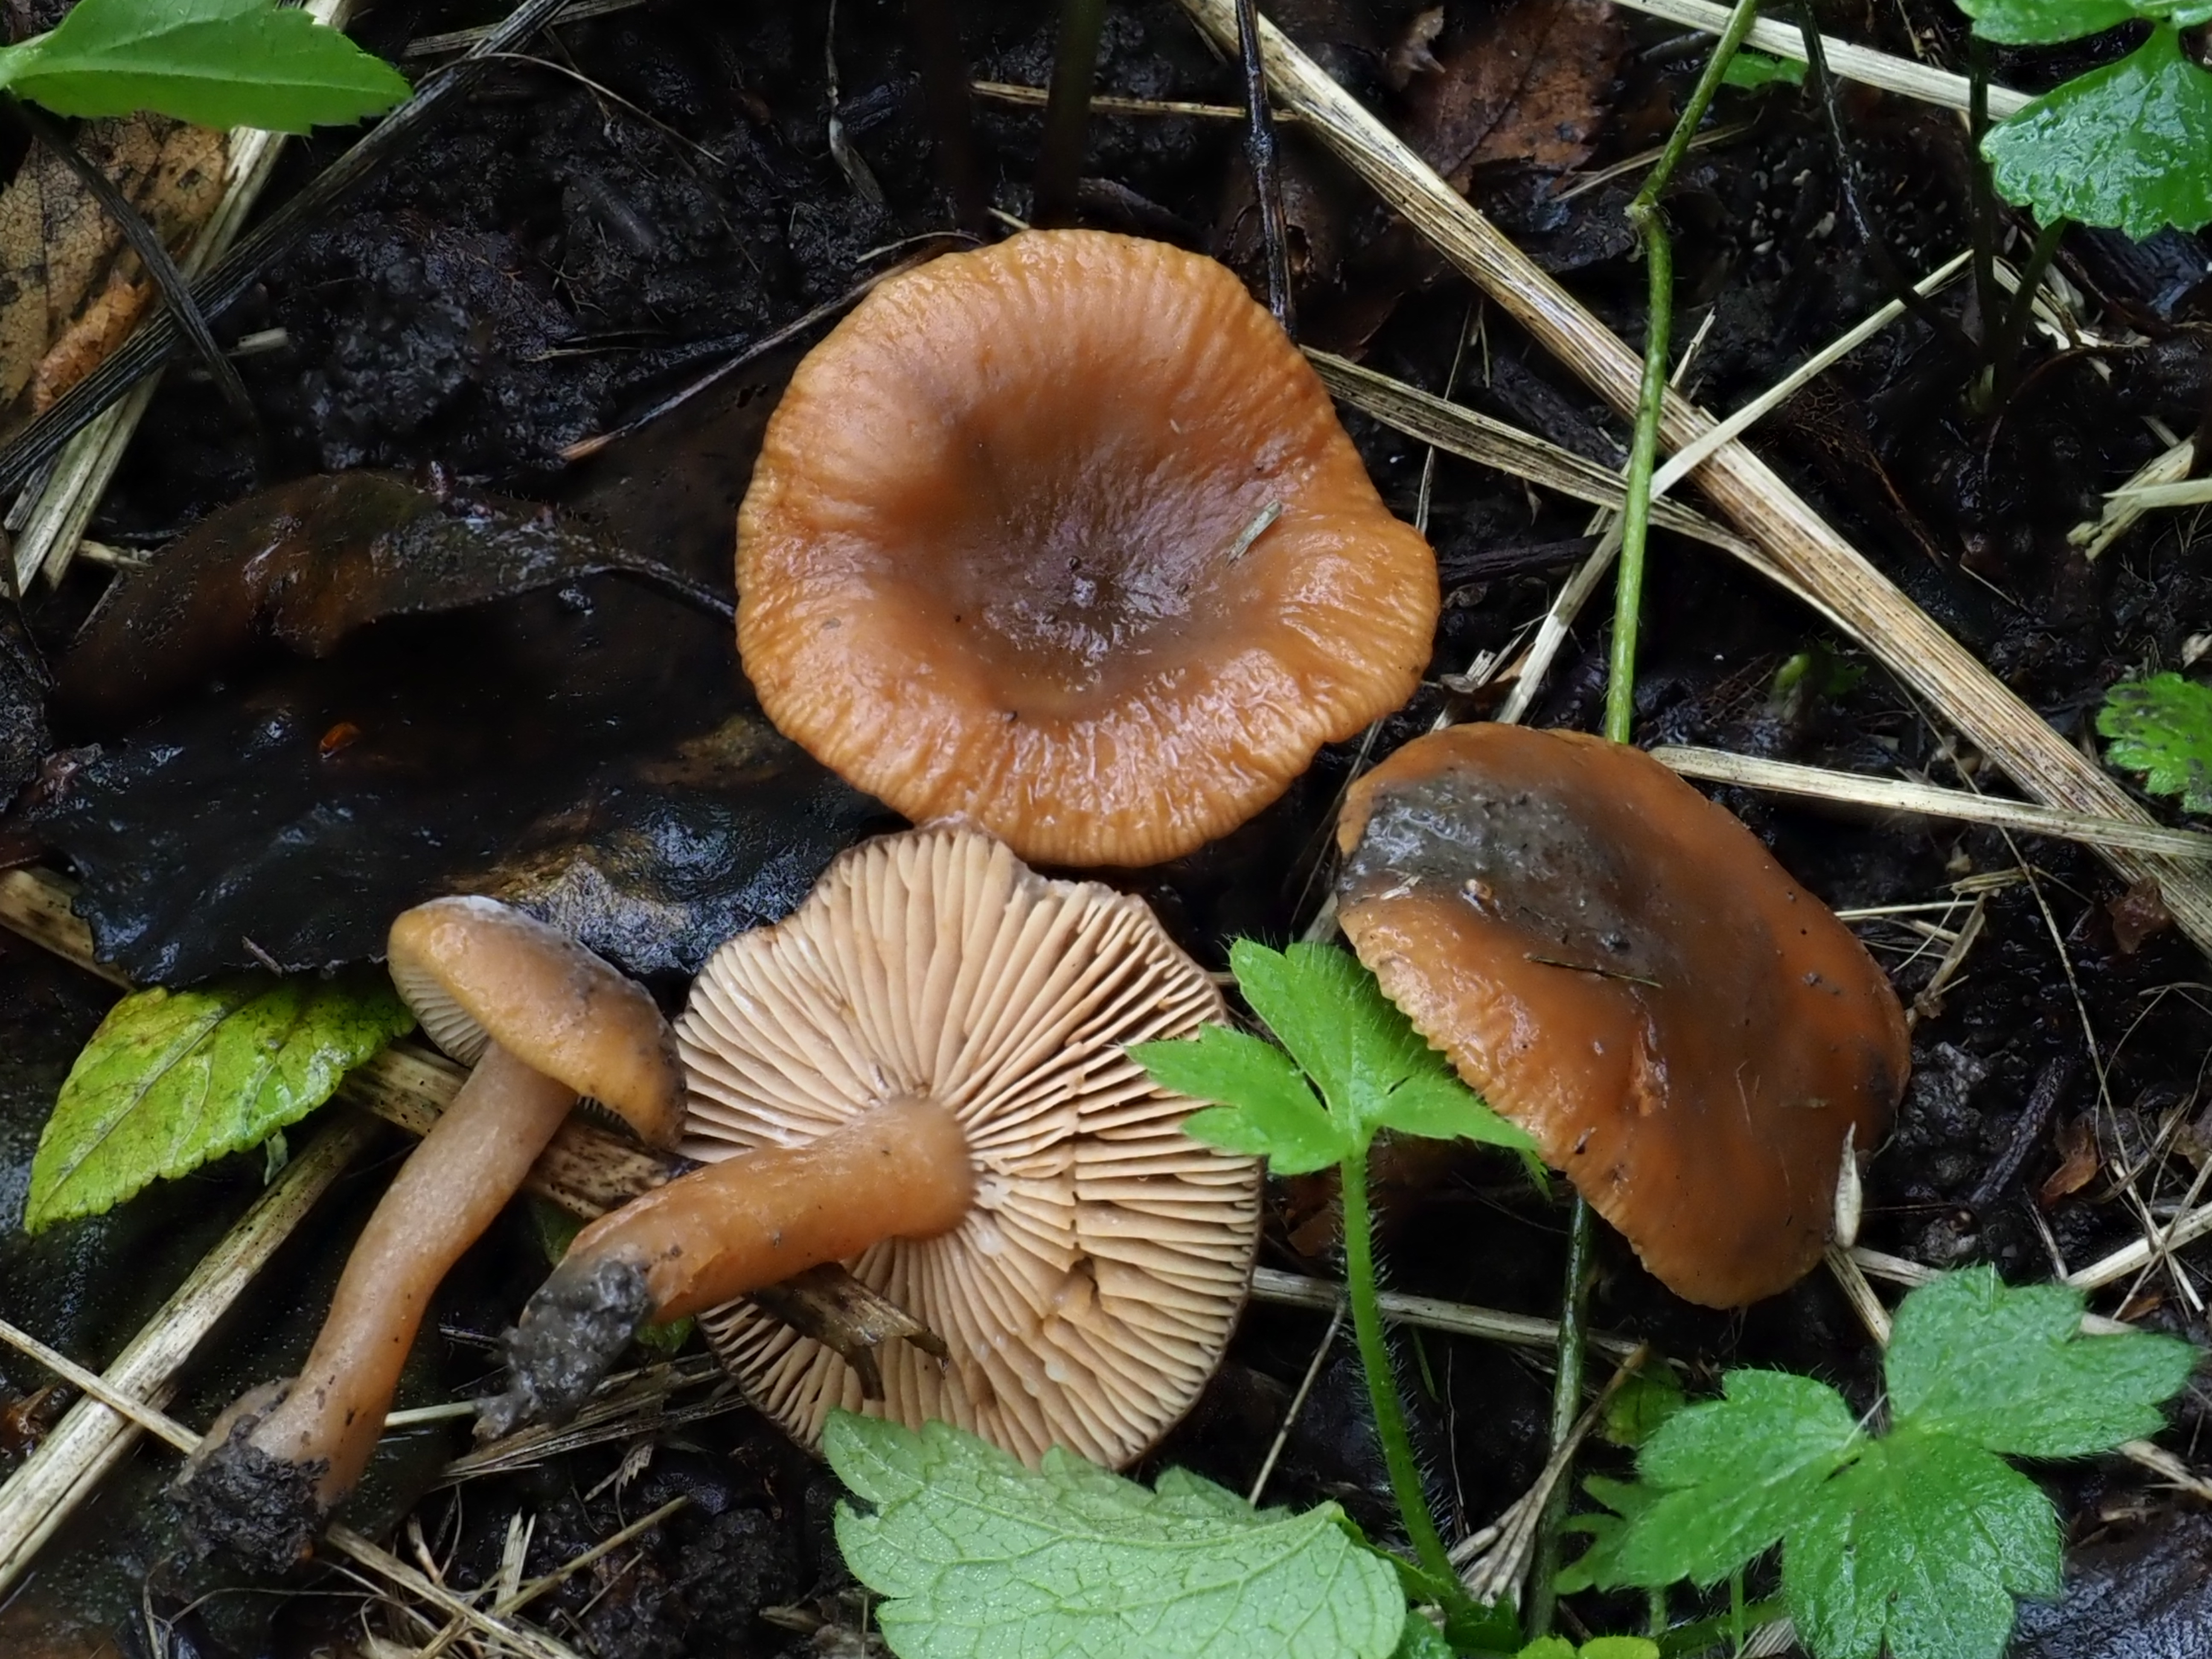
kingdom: Fungi
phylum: Basidiomycota
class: Agaricomycetes
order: Russulales
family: Russulaceae
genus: Lactarius
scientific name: Lactarius obscuratus
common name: Alder milkcap
